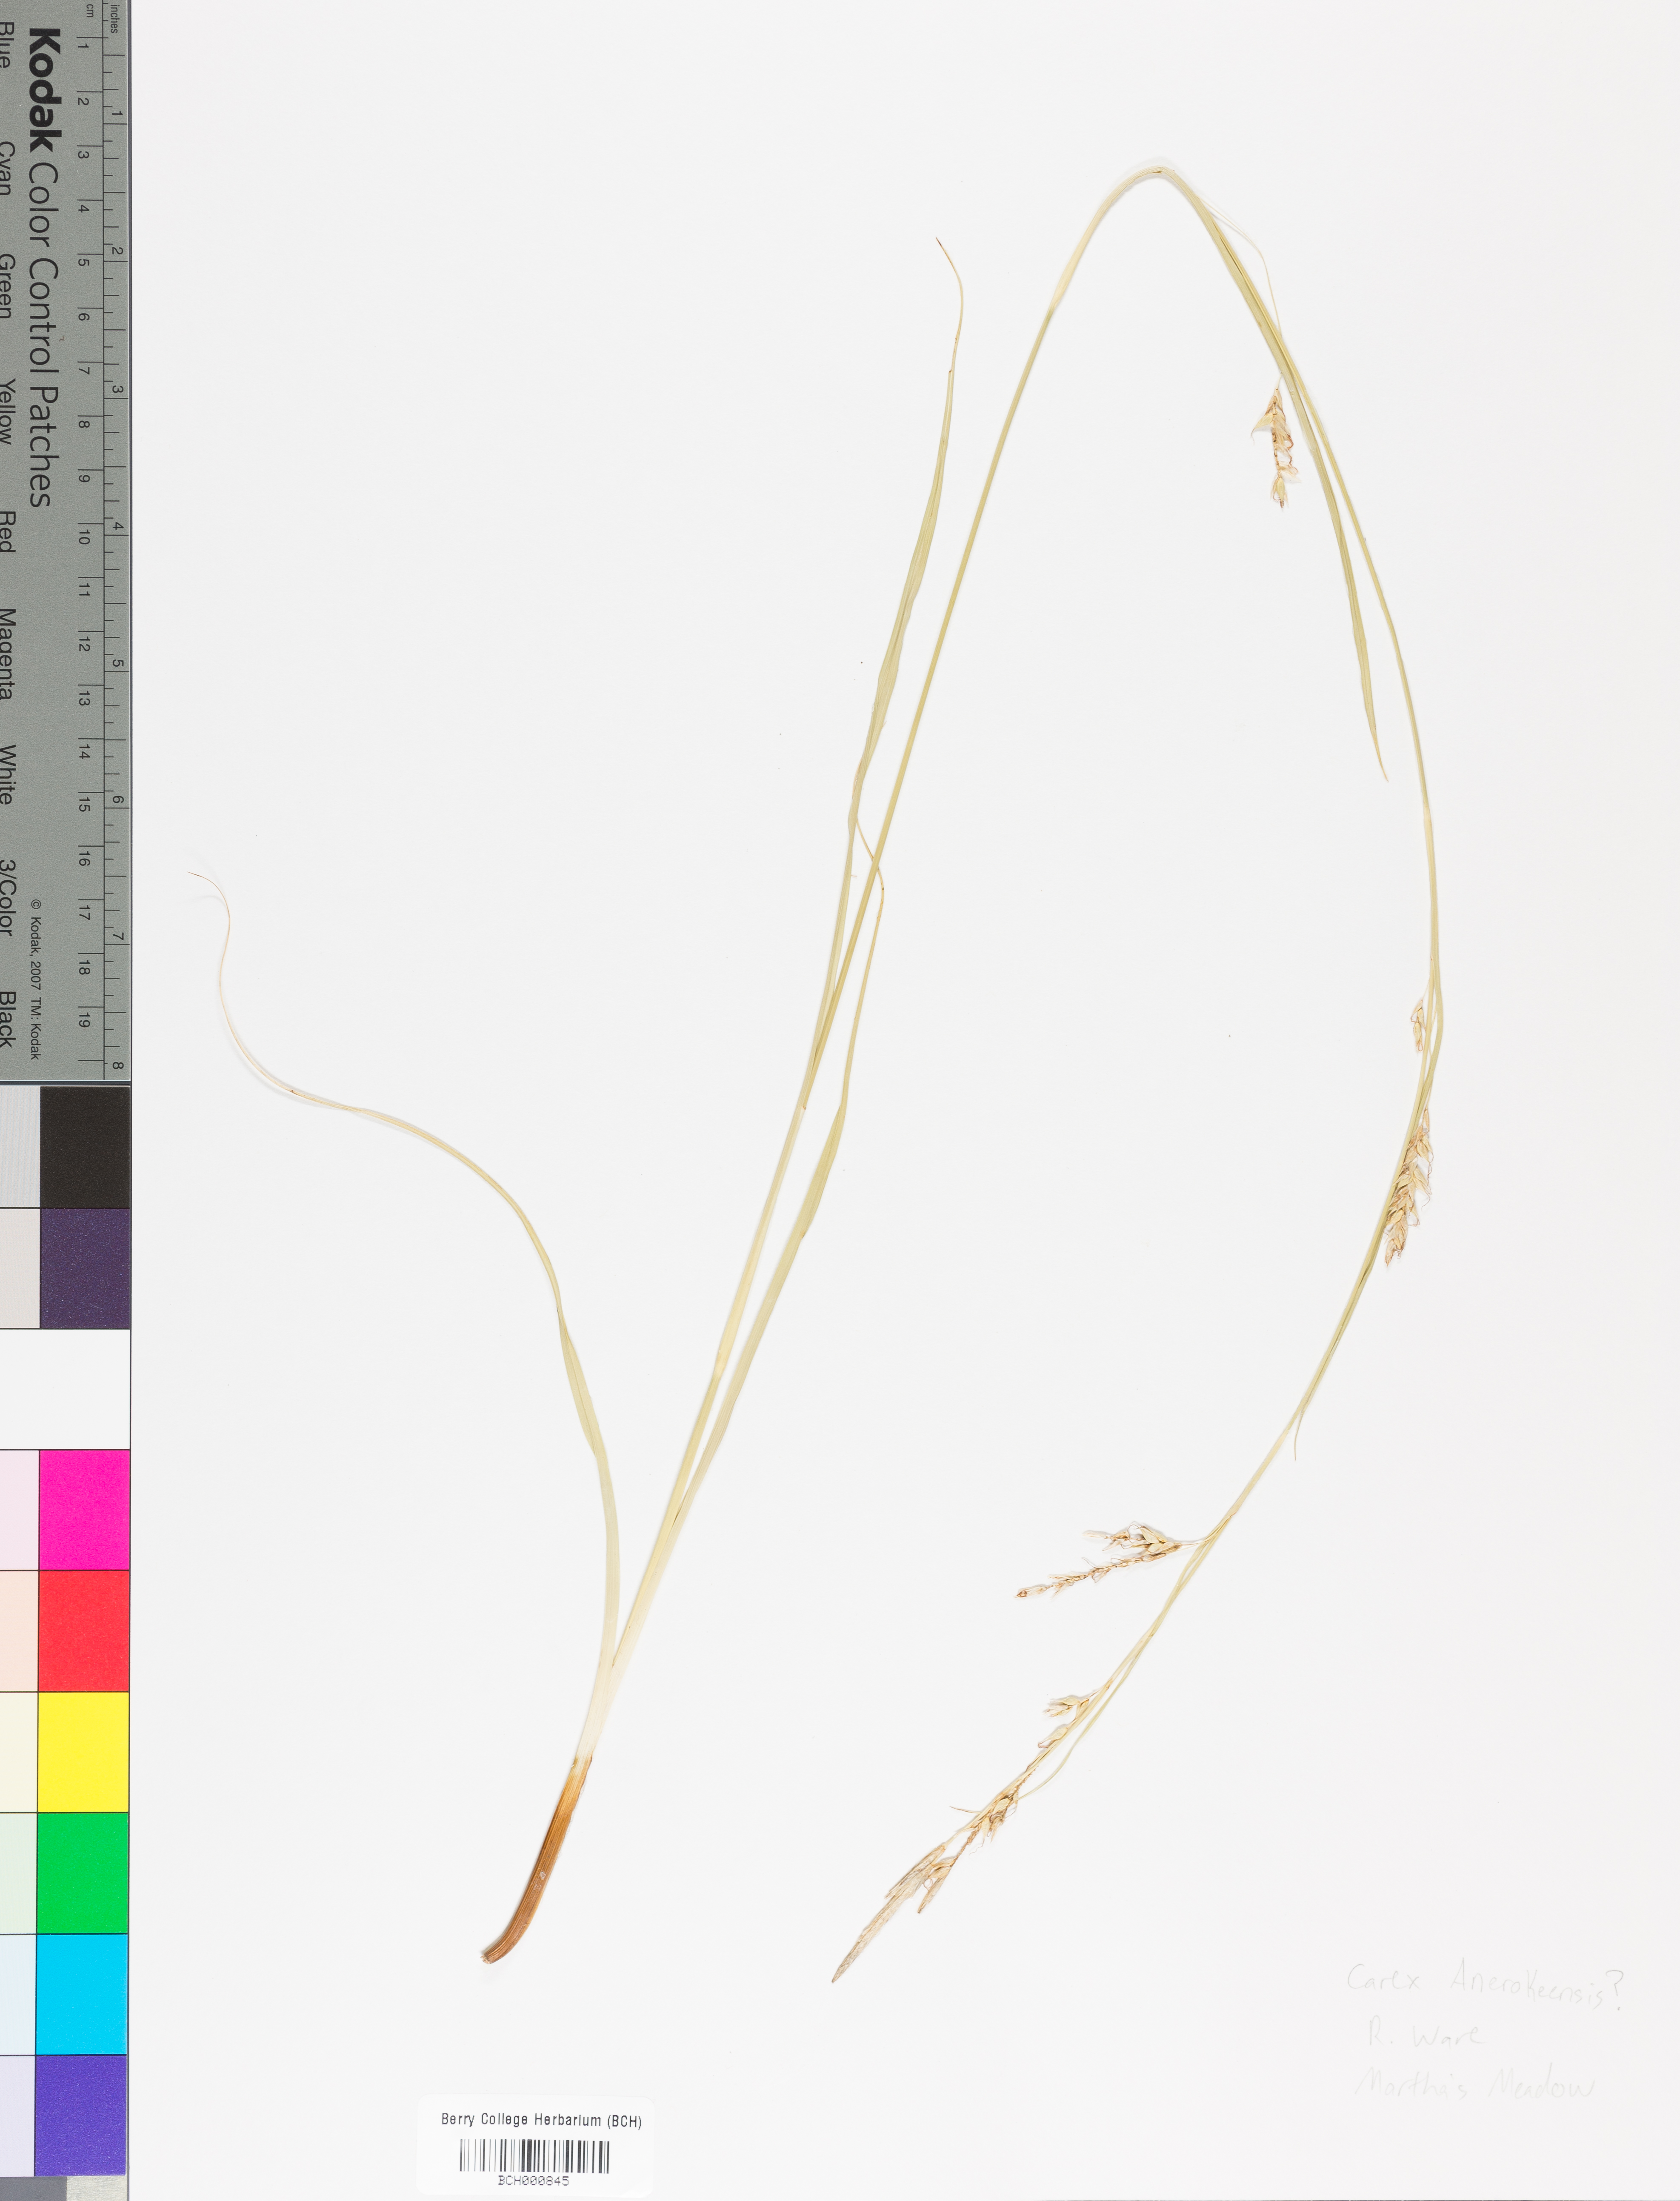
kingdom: Plantae
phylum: Tracheophyta
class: Liliopsida
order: Poales
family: Cyperaceae
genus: Carex
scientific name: Carex
